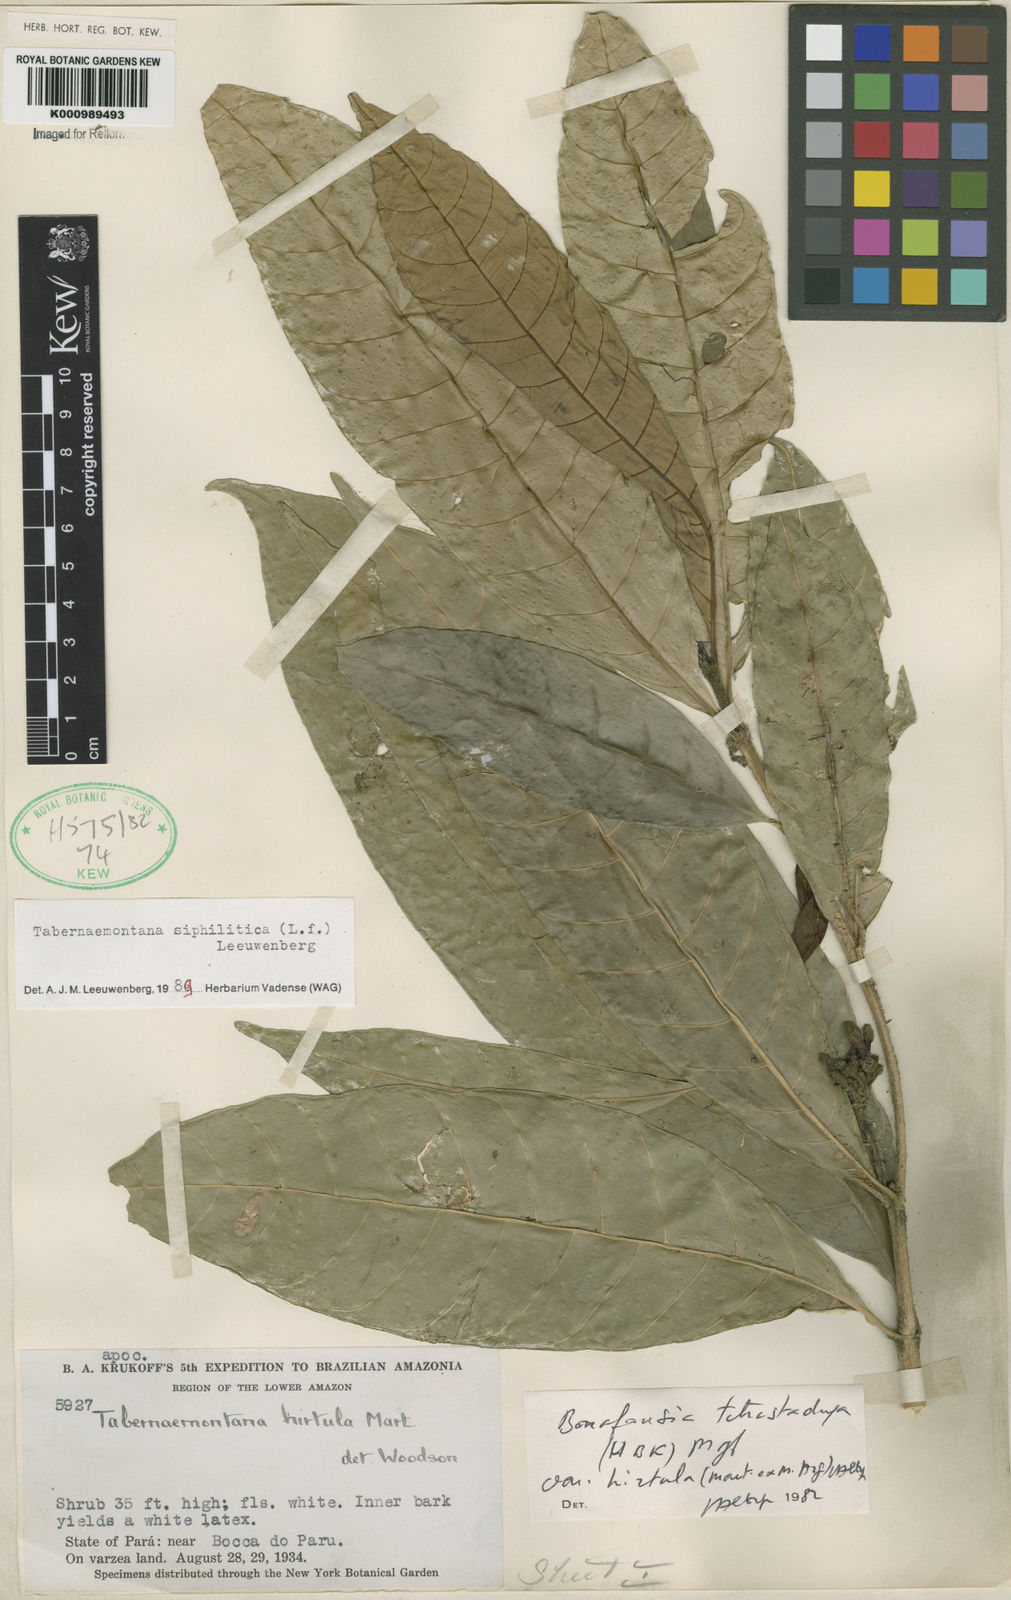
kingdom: Plantae
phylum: Tracheophyta
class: Magnoliopsida
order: Gentianales
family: Apocynaceae
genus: Tabernaemontana
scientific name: Tabernaemontana siphilitica
